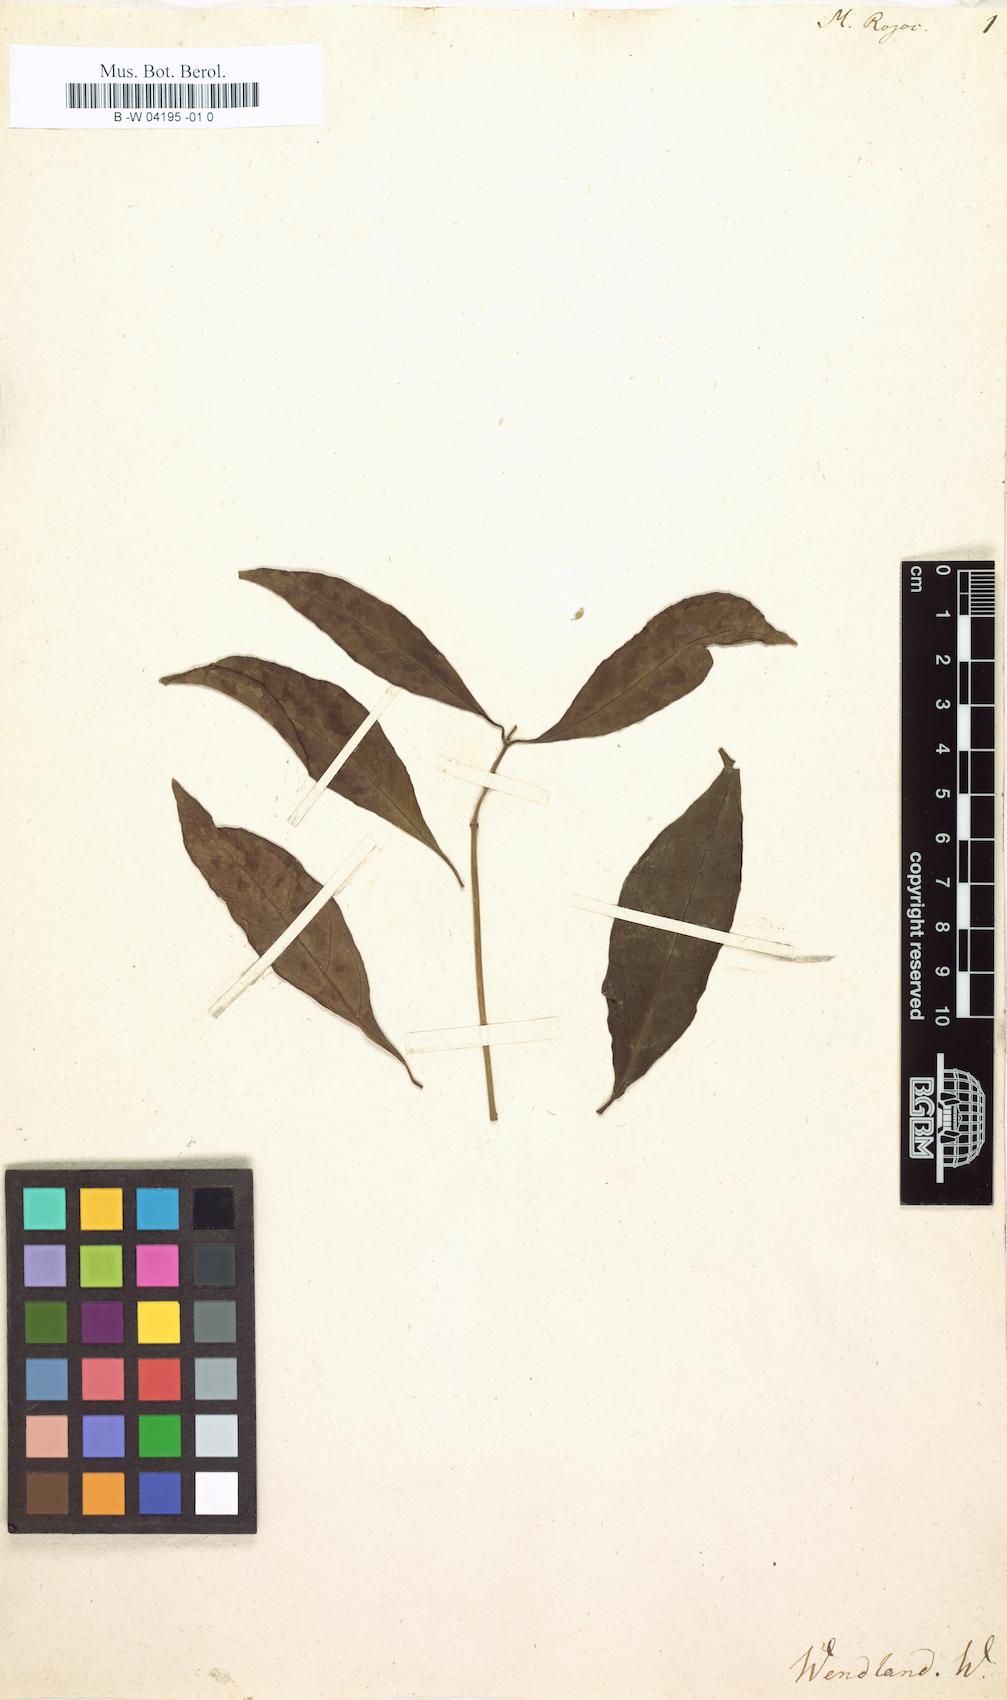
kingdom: Plantae
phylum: Tracheophyta
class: Magnoliopsida
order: Gentianales
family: Rubiaceae
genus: Morinda
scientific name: Morinda royoc
